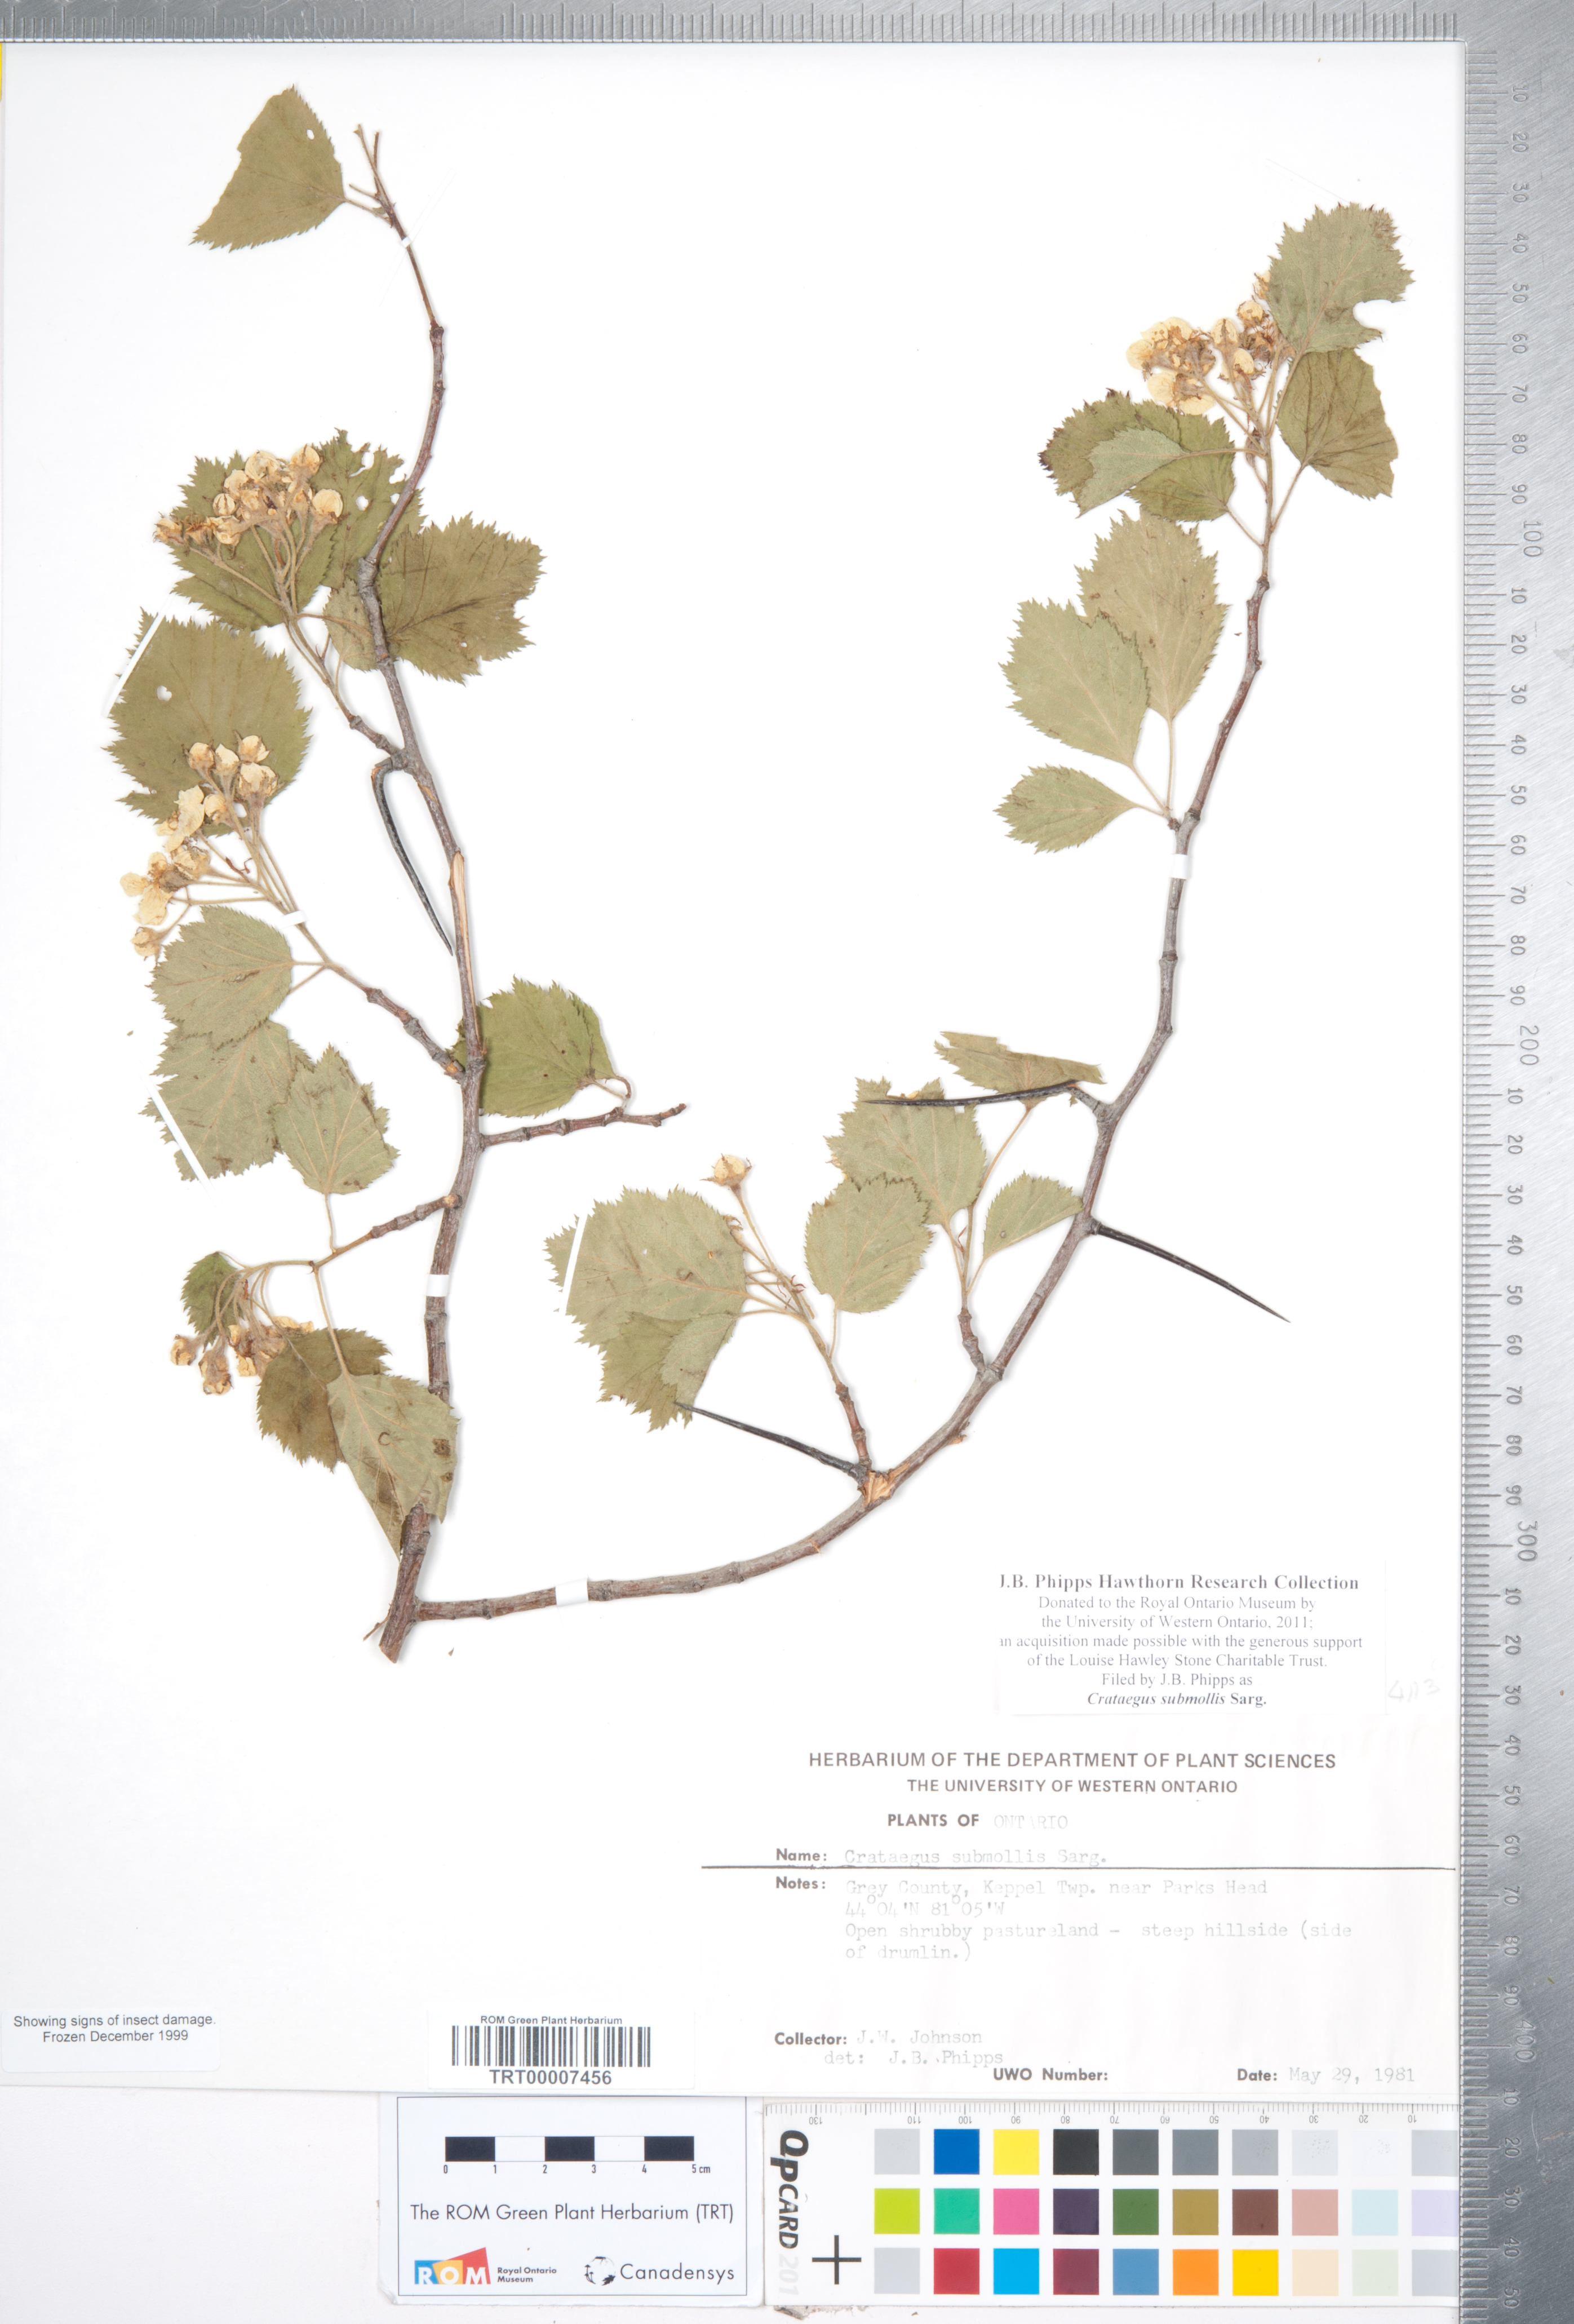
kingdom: Plantae
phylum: Tracheophyta
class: Magnoliopsida
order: Rosales
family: Rosaceae
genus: Crataegus
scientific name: Crataegus submollis
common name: Hairy cockspurthorn
